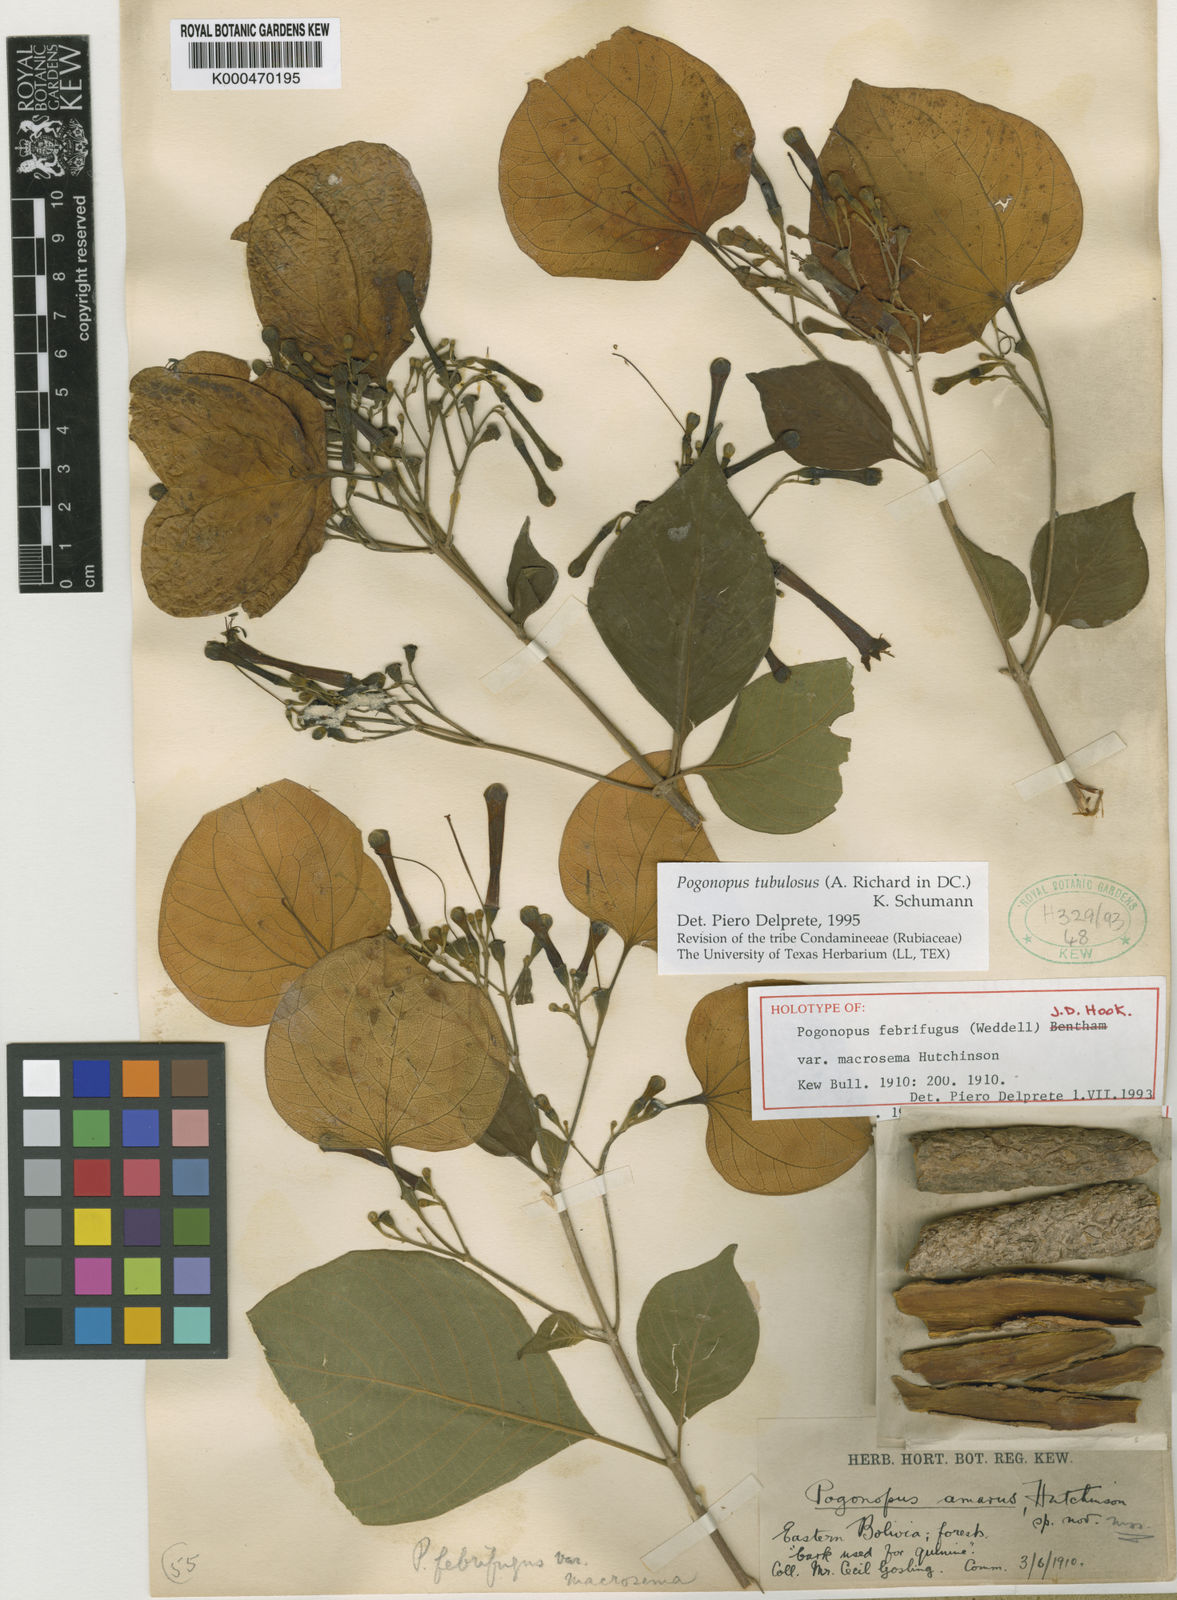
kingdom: Plantae
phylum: Tracheophyta
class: Magnoliopsida
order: Gentianales
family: Rubiaceae
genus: Pogonopus
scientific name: Pogonopus tubulosus
